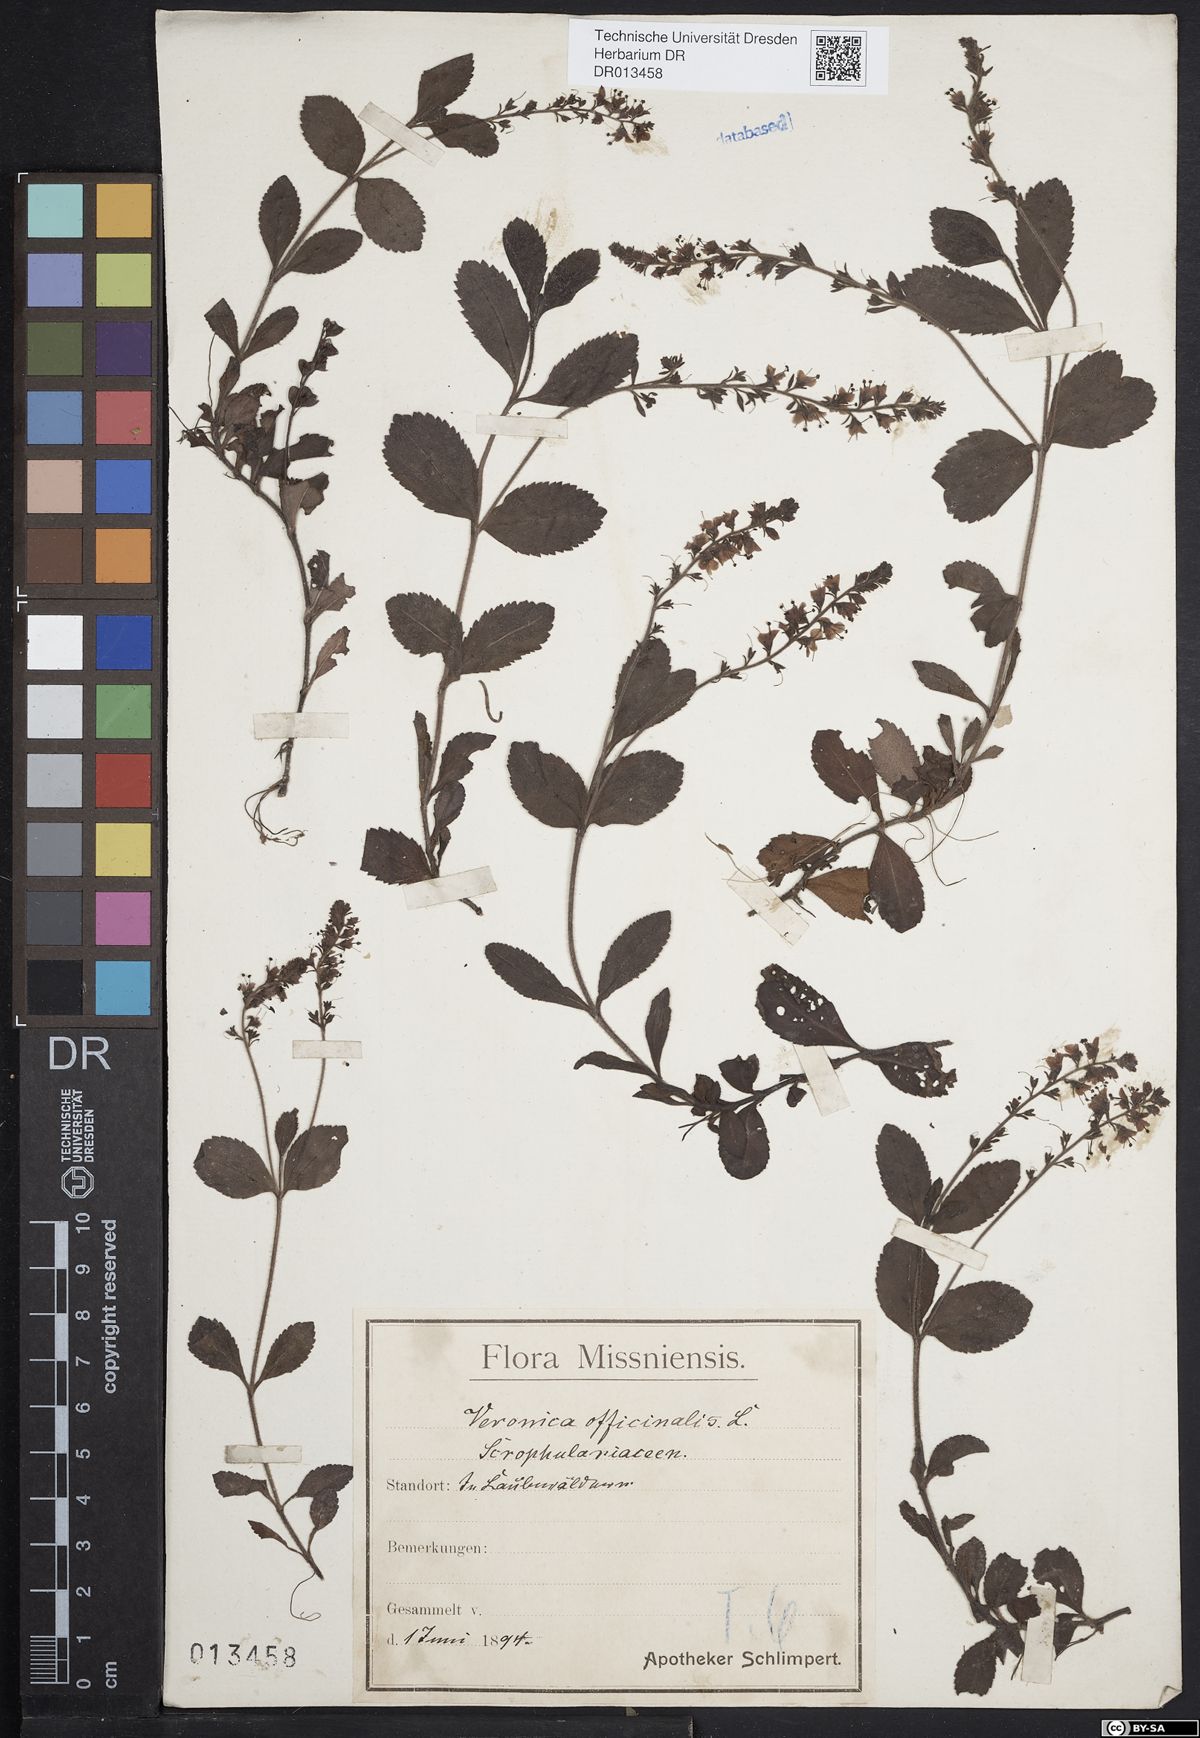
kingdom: Plantae
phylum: Tracheophyta
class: Magnoliopsida
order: Lamiales
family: Plantaginaceae
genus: Veronica
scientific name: Veronica officinalis
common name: Common speedwell
